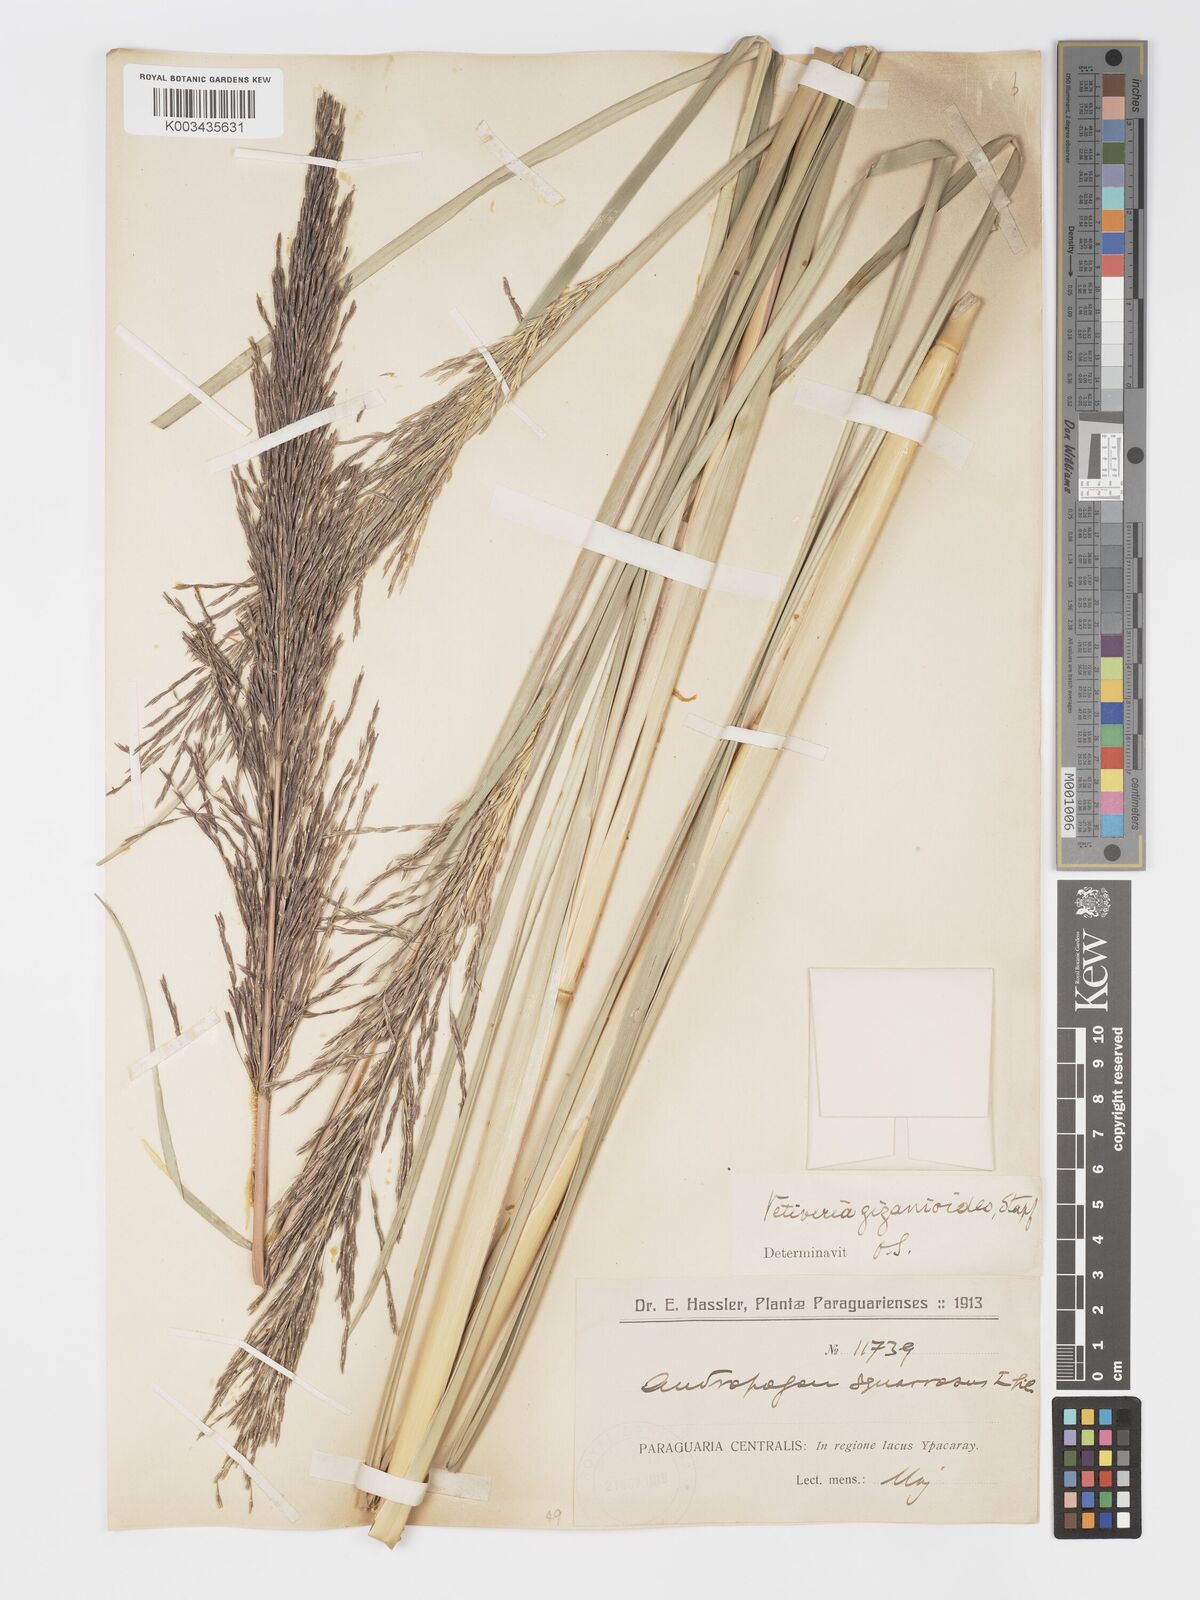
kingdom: Plantae
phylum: Tracheophyta
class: Liliopsida
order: Poales
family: Poaceae
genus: Chrysopogon
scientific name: Chrysopogon zizanioides
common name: False beardgrass
